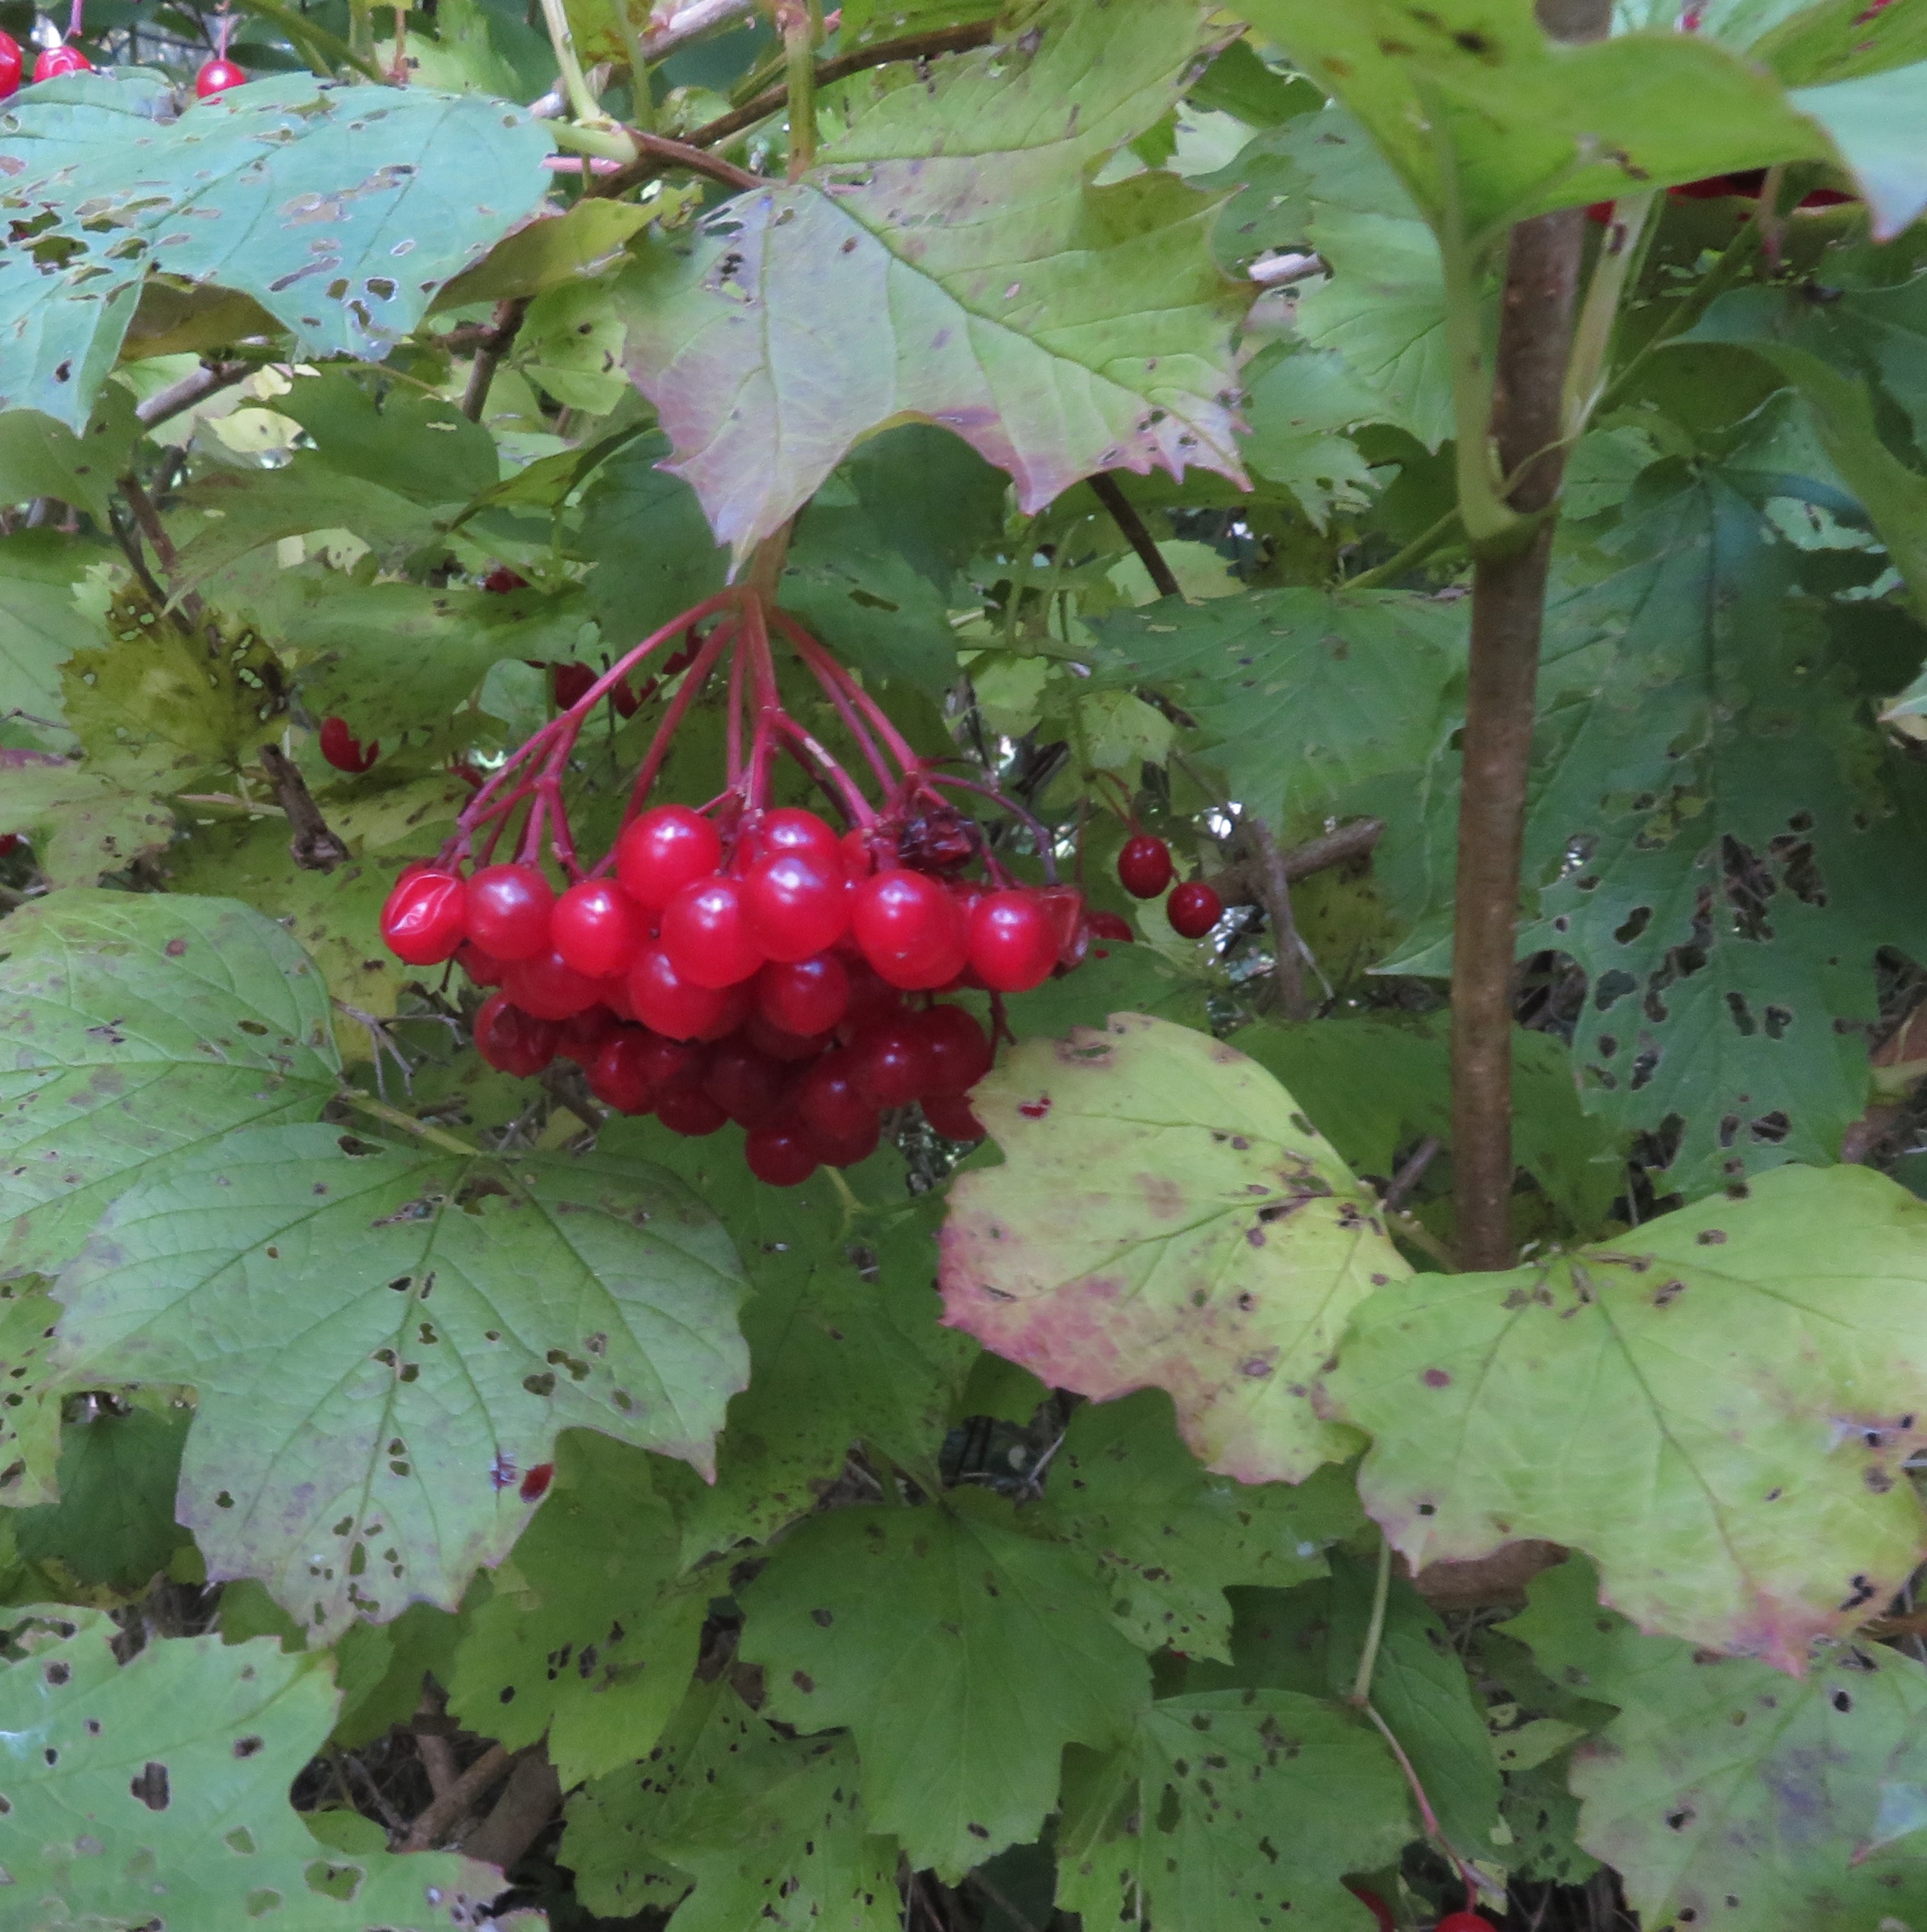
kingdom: Plantae
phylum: Tracheophyta
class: Magnoliopsida
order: Dipsacales
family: Viburnaceae
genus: Viburnum
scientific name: Viburnum opulus
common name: Kvalkved
